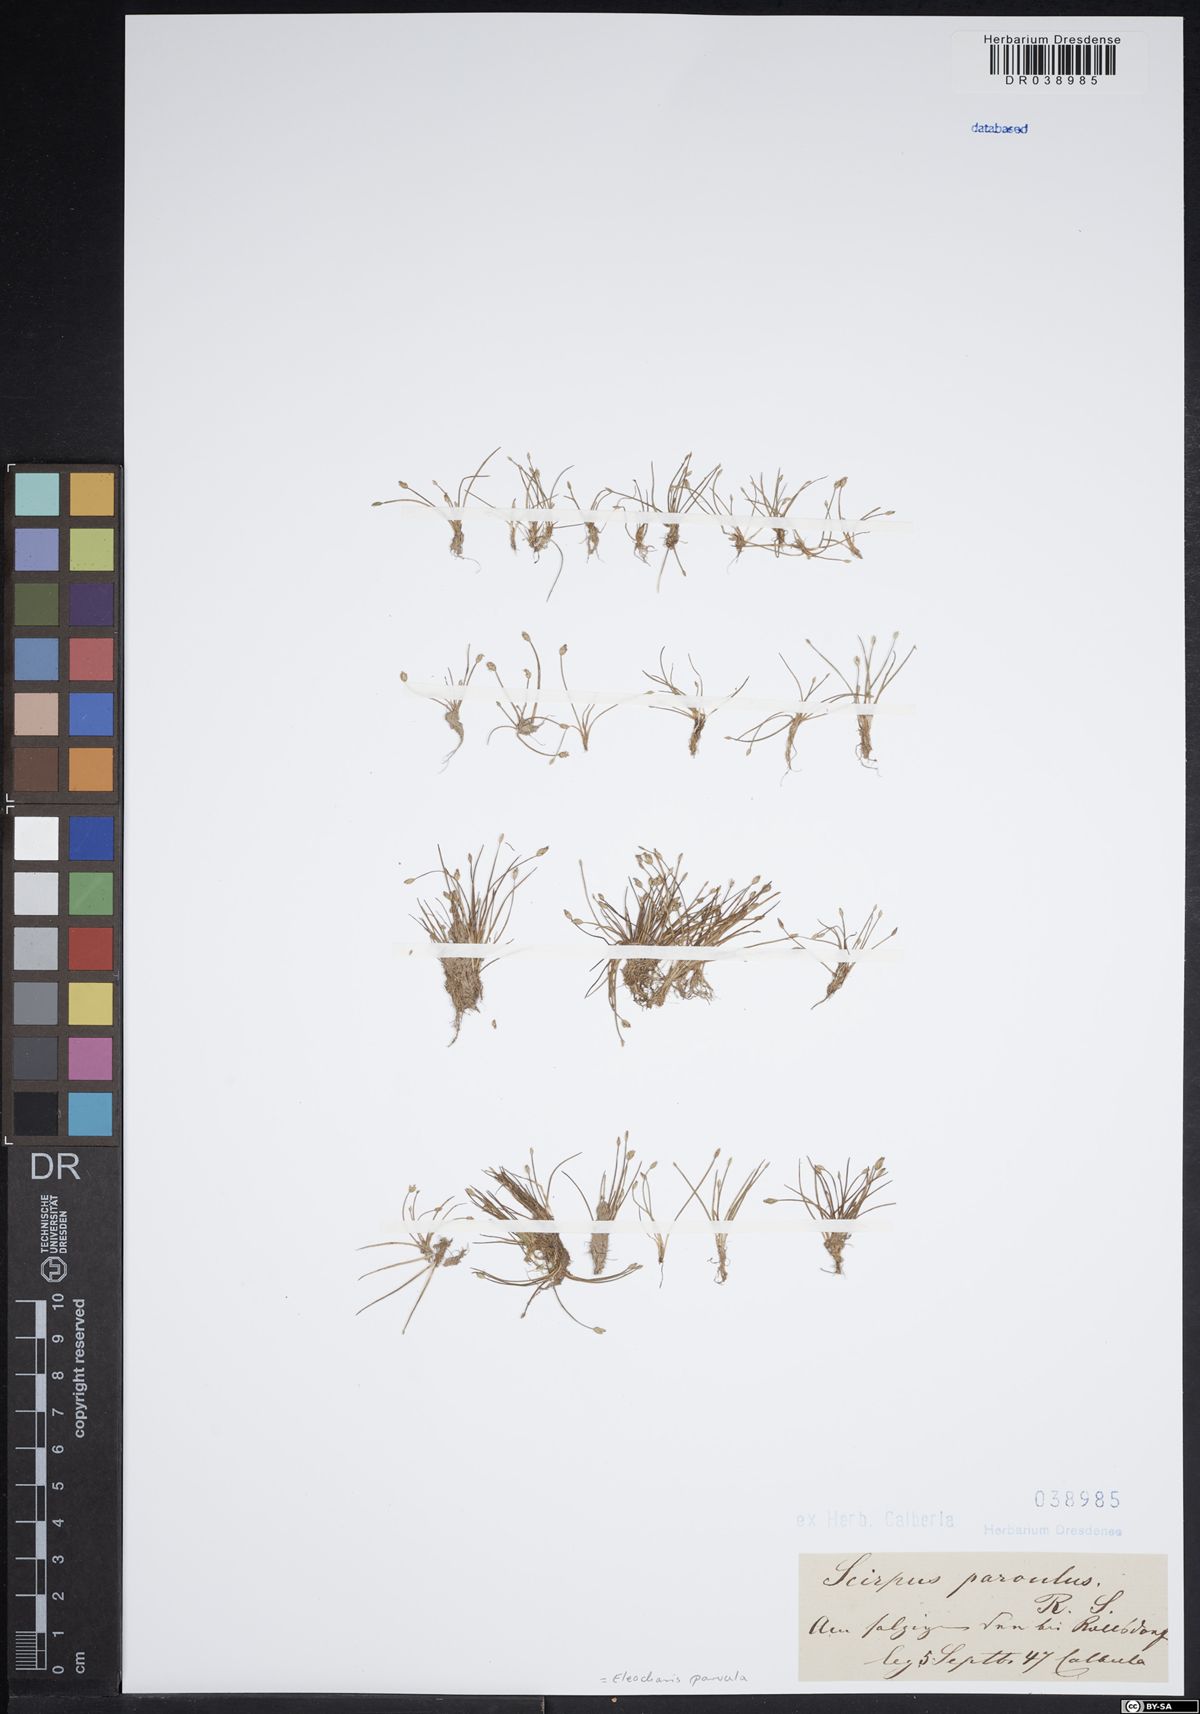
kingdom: Plantae
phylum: Tracheophyta
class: Liliopsida
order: Poales
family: Cyperaceae
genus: Eleocharis
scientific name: Eleocharis parvula
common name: Dwarf spike-rush
